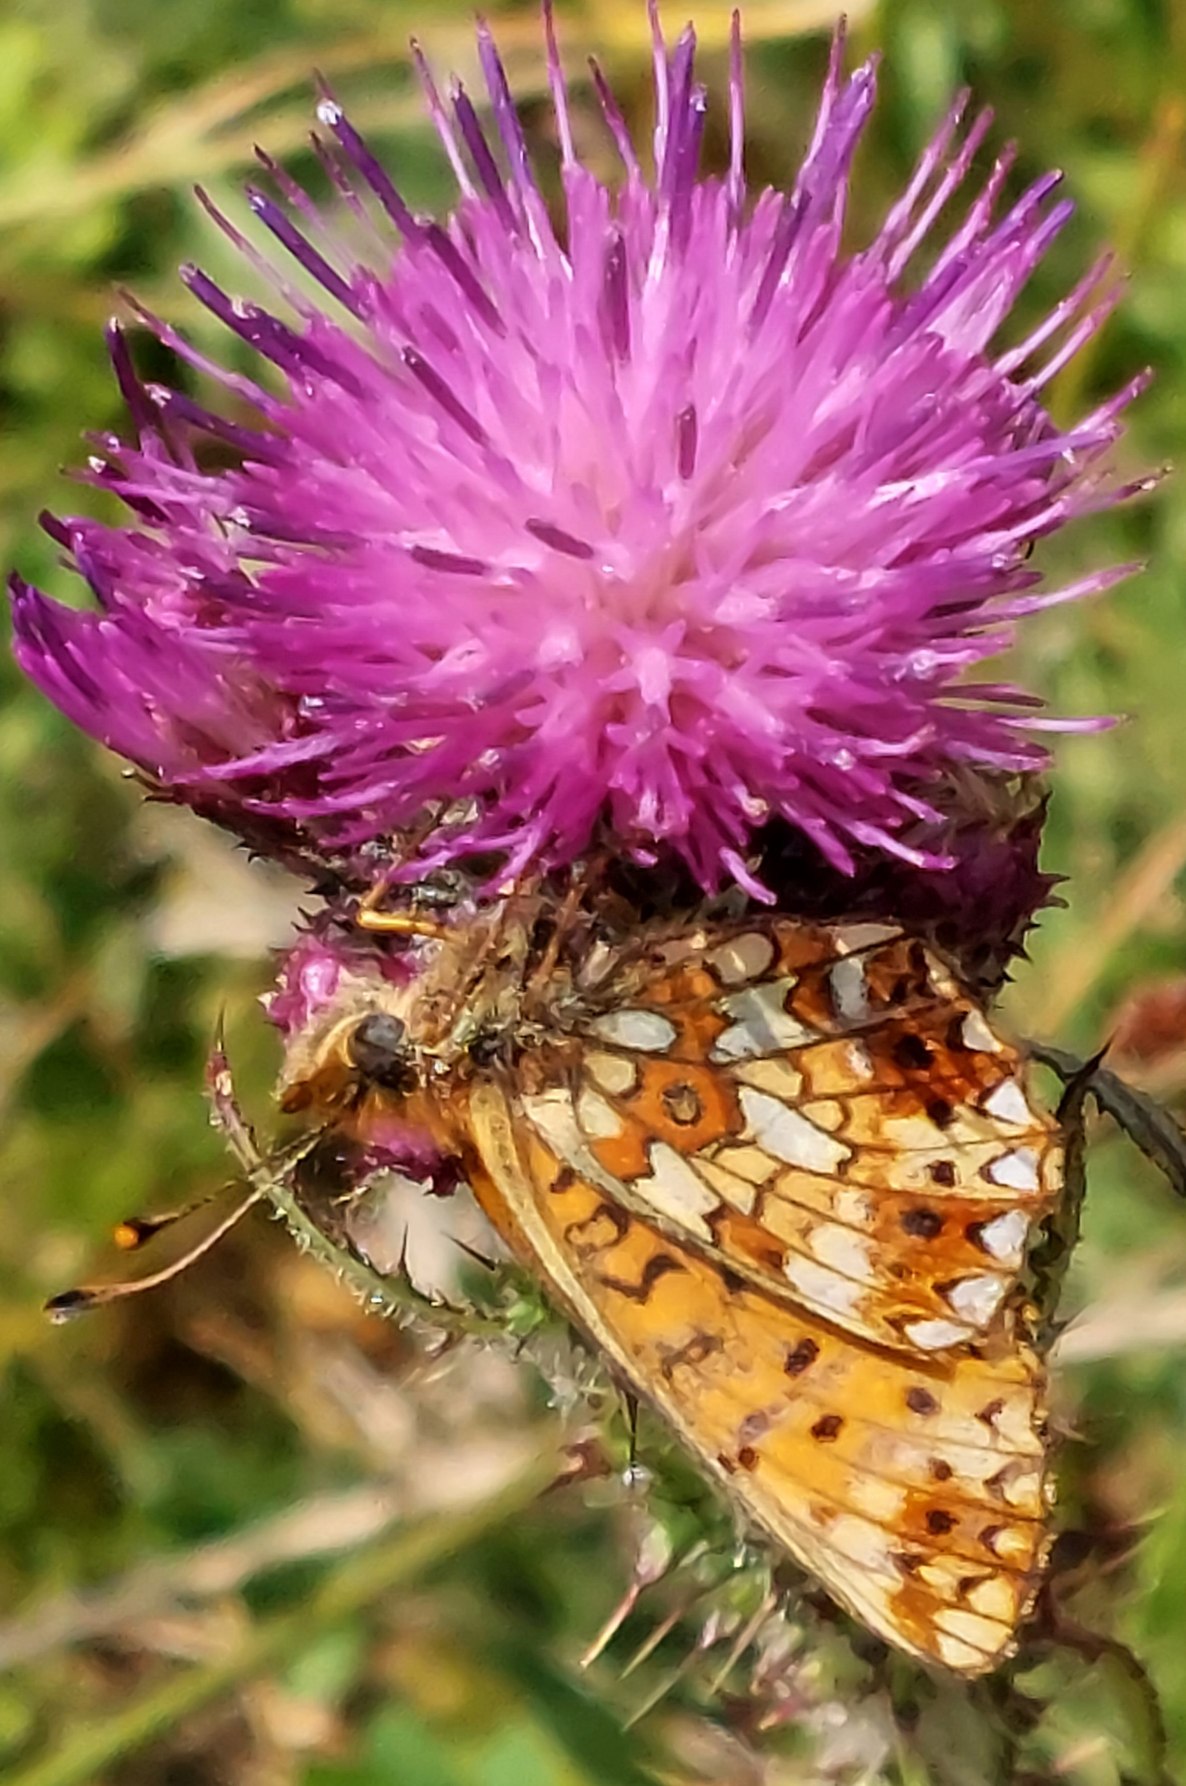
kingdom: Animalia
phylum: Arthropoda
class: Insecta
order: Lepidoptera
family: Nymphalidae
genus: Boloria
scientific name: Boloria selene
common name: Brunlig perlemorsommerfugl
